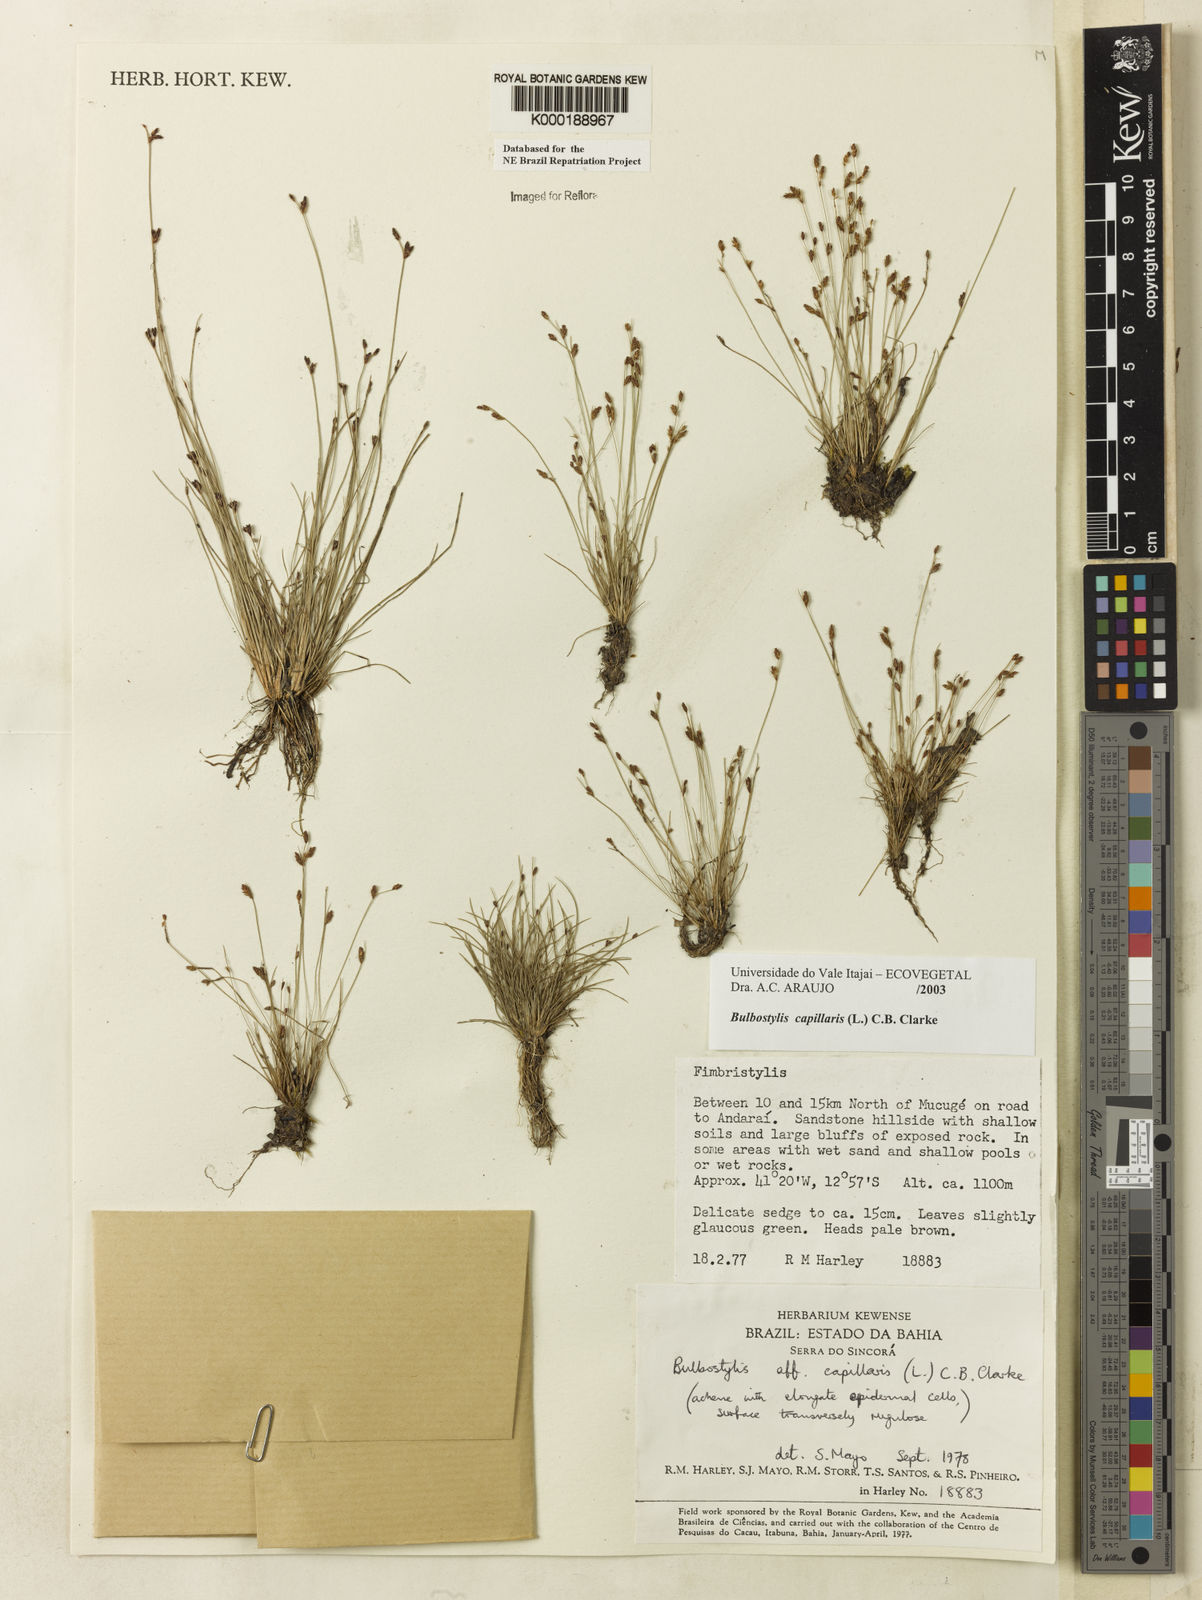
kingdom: Plantae
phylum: Tracheophyta
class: Liliopsida
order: Poales
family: Cyperaceae
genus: Bulbostylis
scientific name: Bulbostylis capillaris
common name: Densetuft hairsedge
